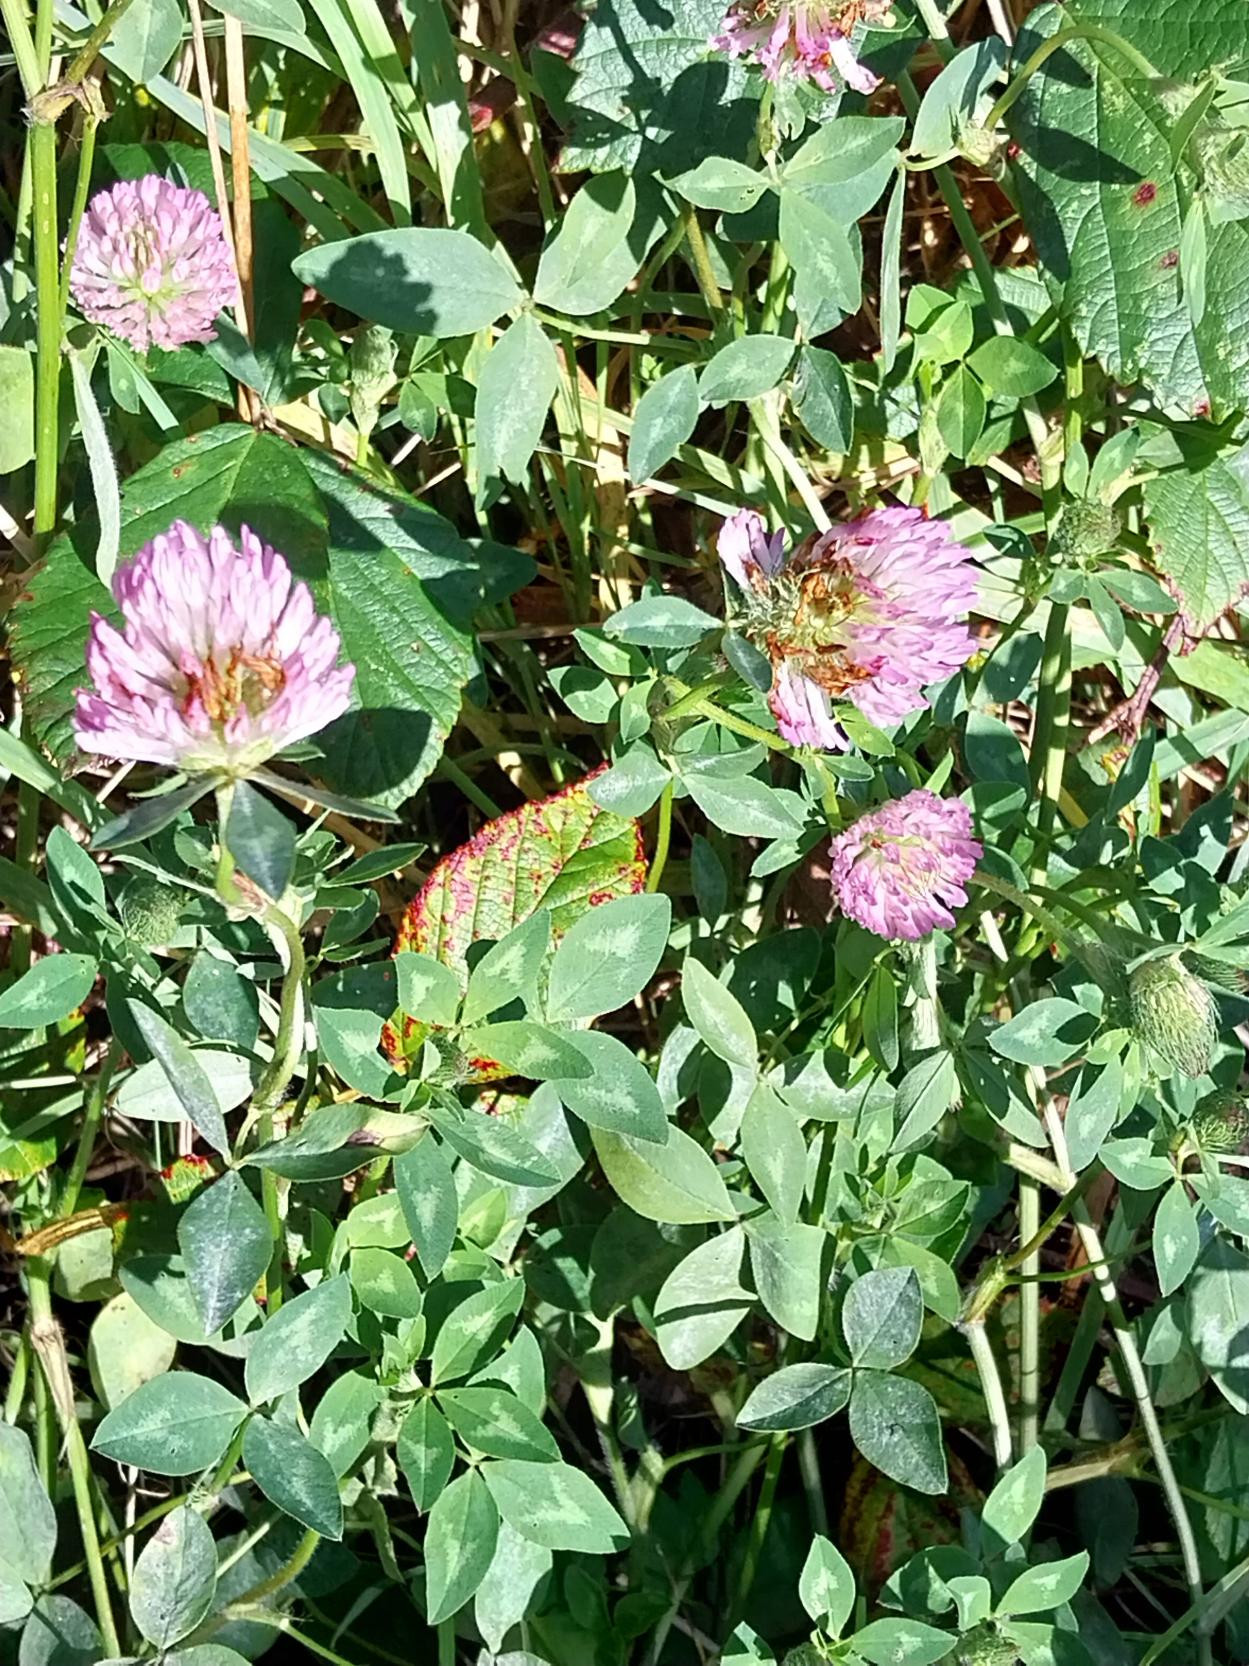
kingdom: Plantae
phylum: Tracheophyta
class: Magnoliopsida
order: Fabales
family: Fabaceae
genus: Trifolium
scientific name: Trifolium pratense
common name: Rød-kløver
